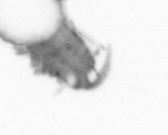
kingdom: Animalia
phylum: Annelida
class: Polychaeta
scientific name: Polychaeta
